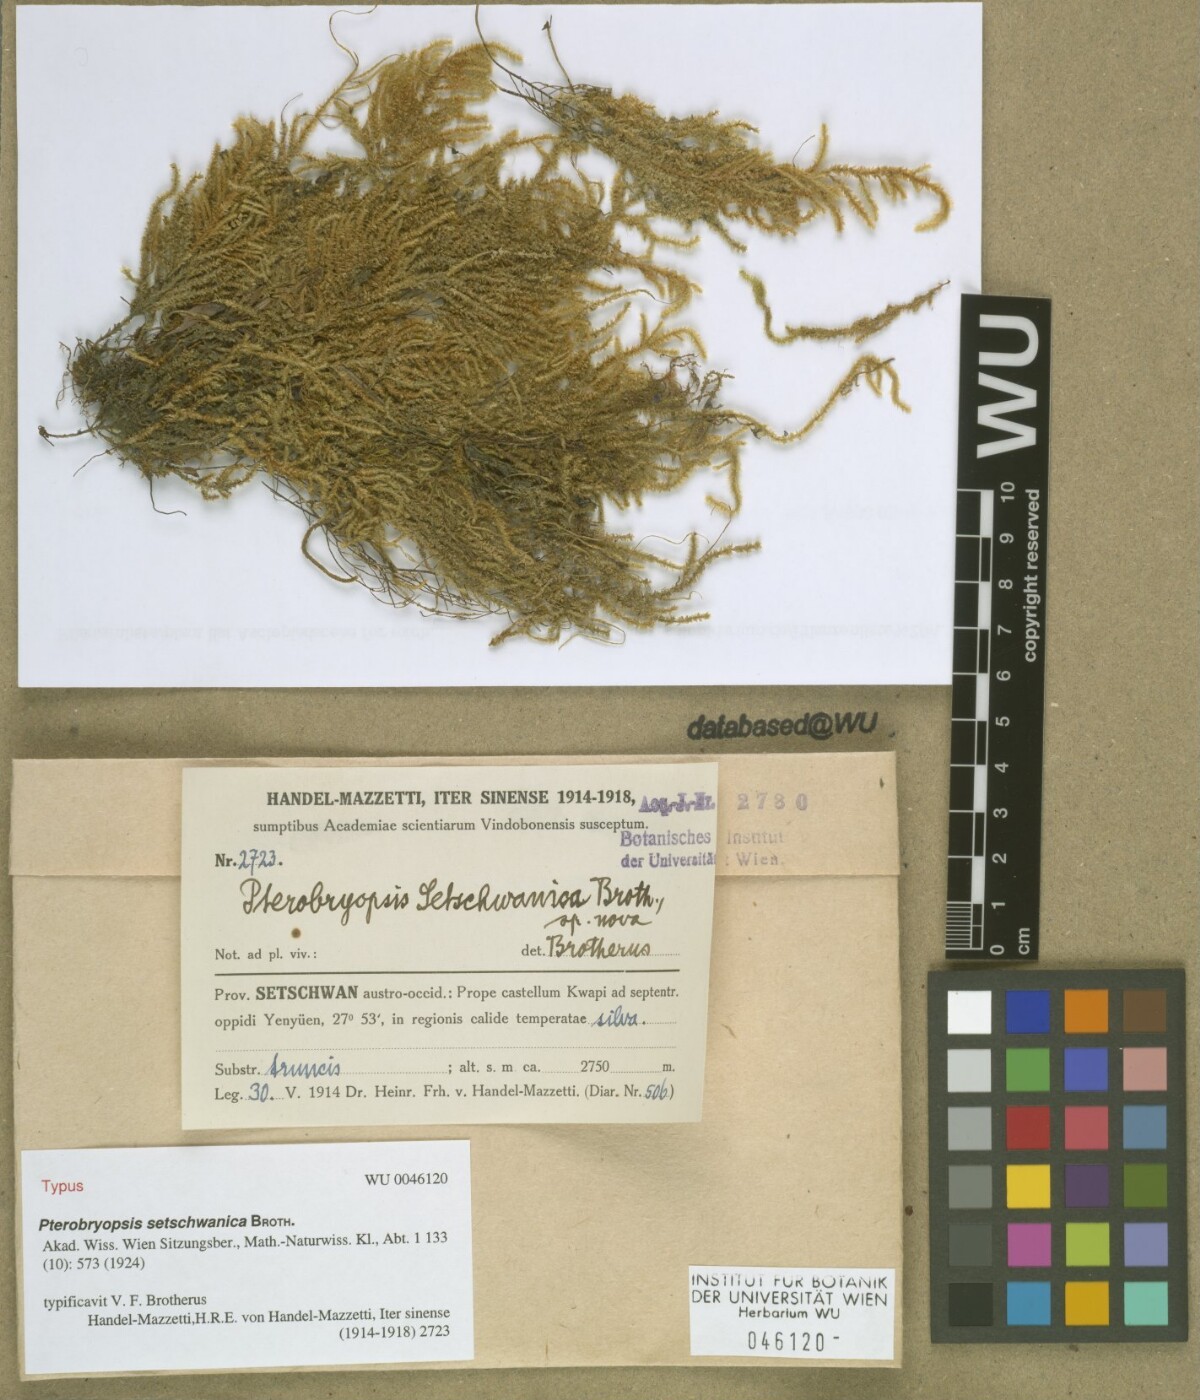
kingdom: Plantae
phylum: Bryophyta
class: Bryopsida
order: Hypnales
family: Pterobryaceae
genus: Pterobryopsis
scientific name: Pterobryopsis setschwanica
